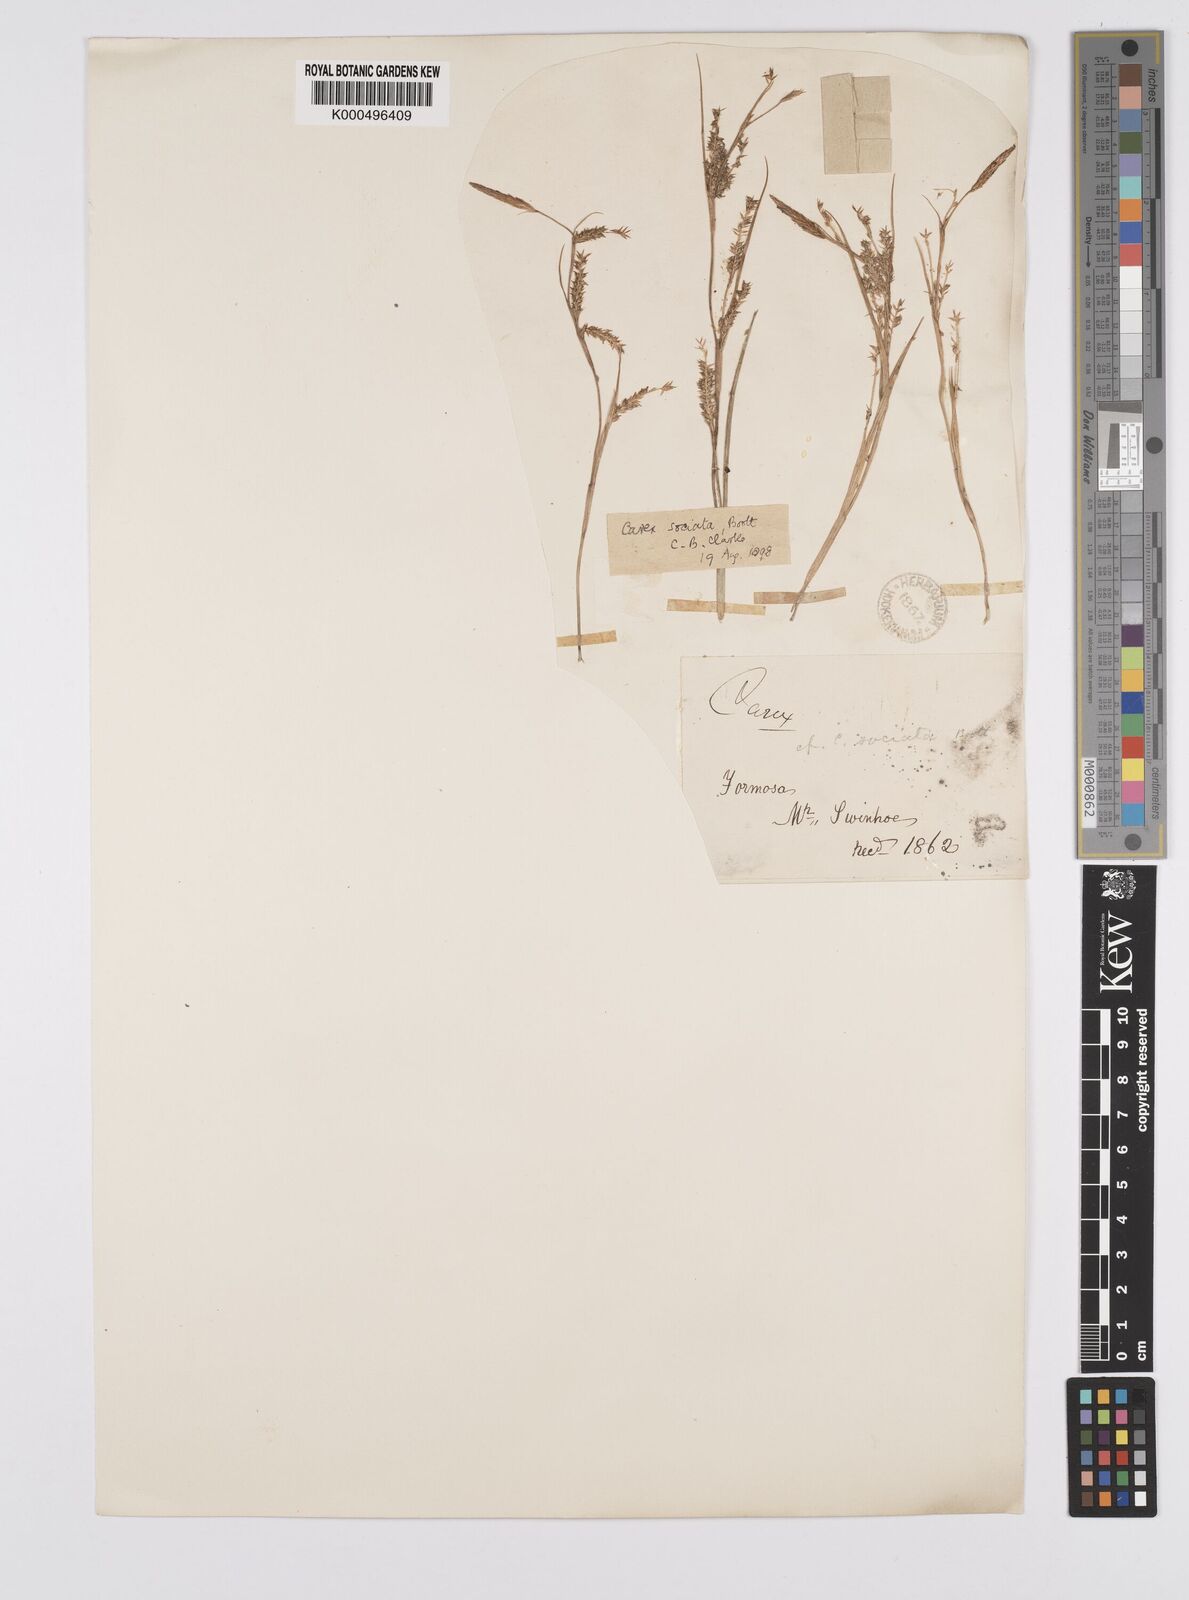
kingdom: Plantae
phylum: Tracheophyta
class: Liliopsida
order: Poales
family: Cyperaceae
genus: Carex
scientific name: Carex chinensis
